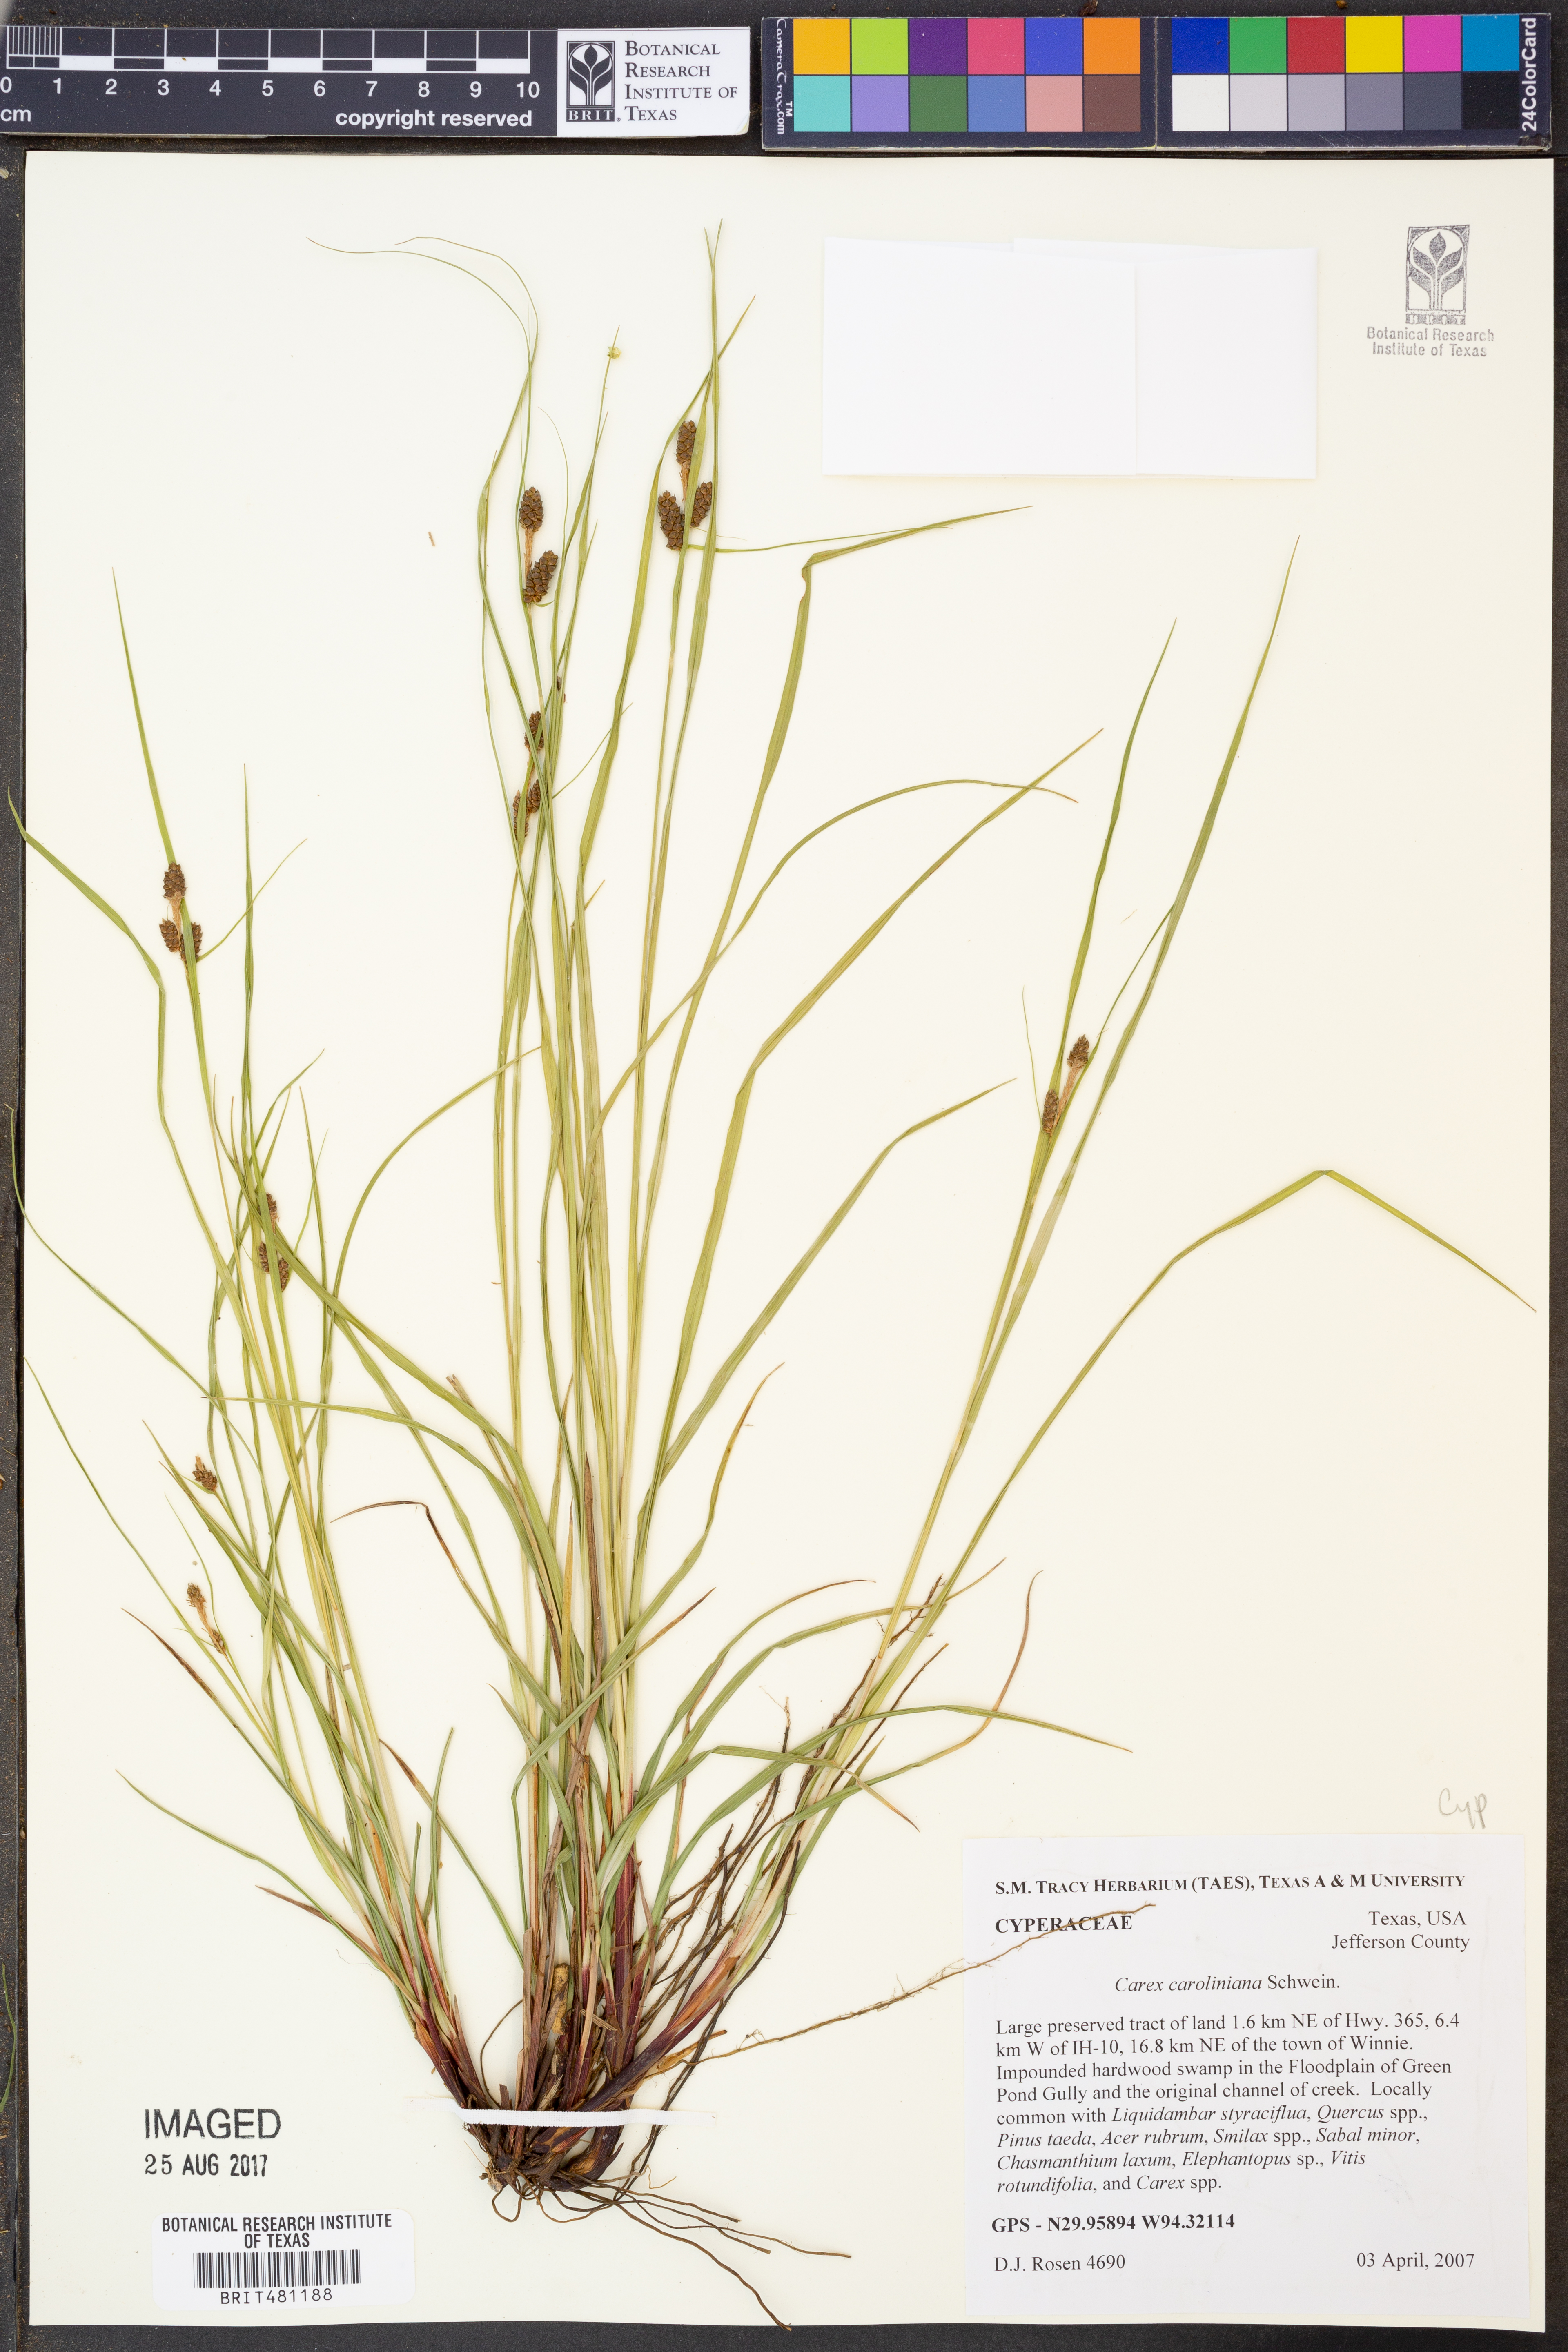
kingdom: Plantae
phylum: Tracheophyta
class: Liliopsida
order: Poales
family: Cyperaceae
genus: Carex
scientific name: Carex caroliniana
